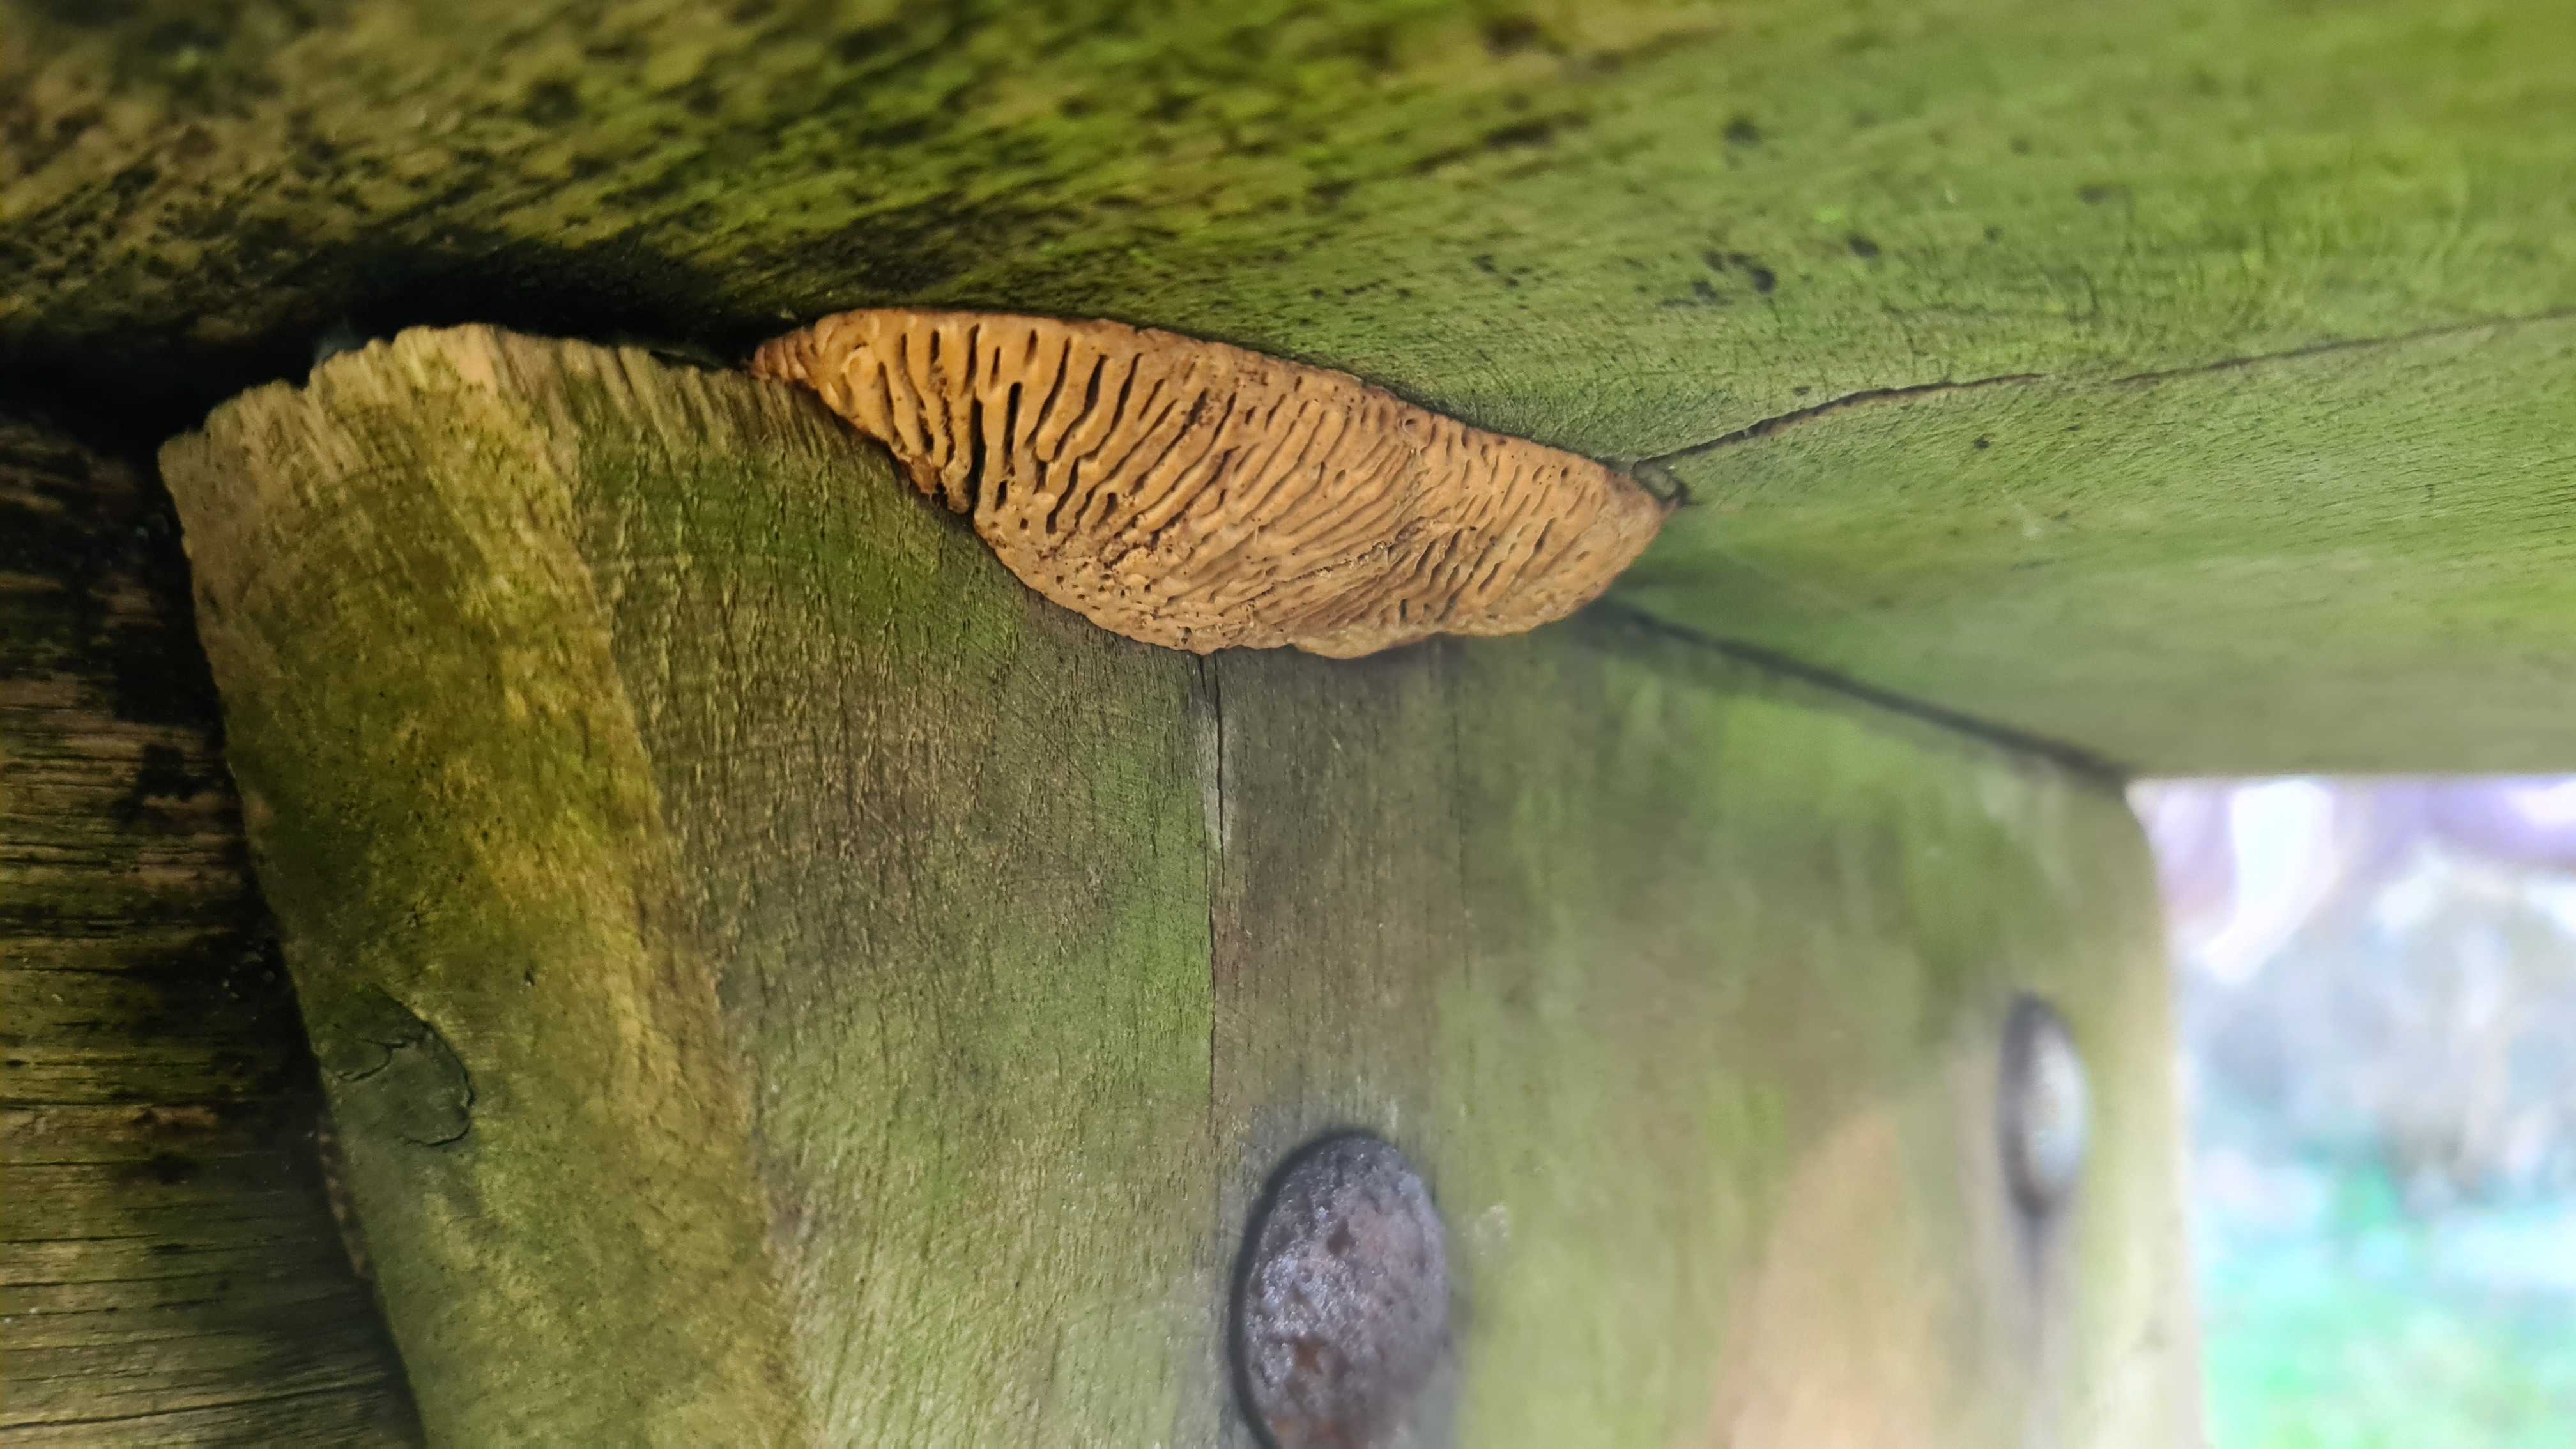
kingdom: Fungi
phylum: Basidiomycota
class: Agaricomycetes
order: Polyporales
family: Fomitopsidaceae
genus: Daedalea
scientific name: Daedalea quercina
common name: ege-labyrintsvamp
